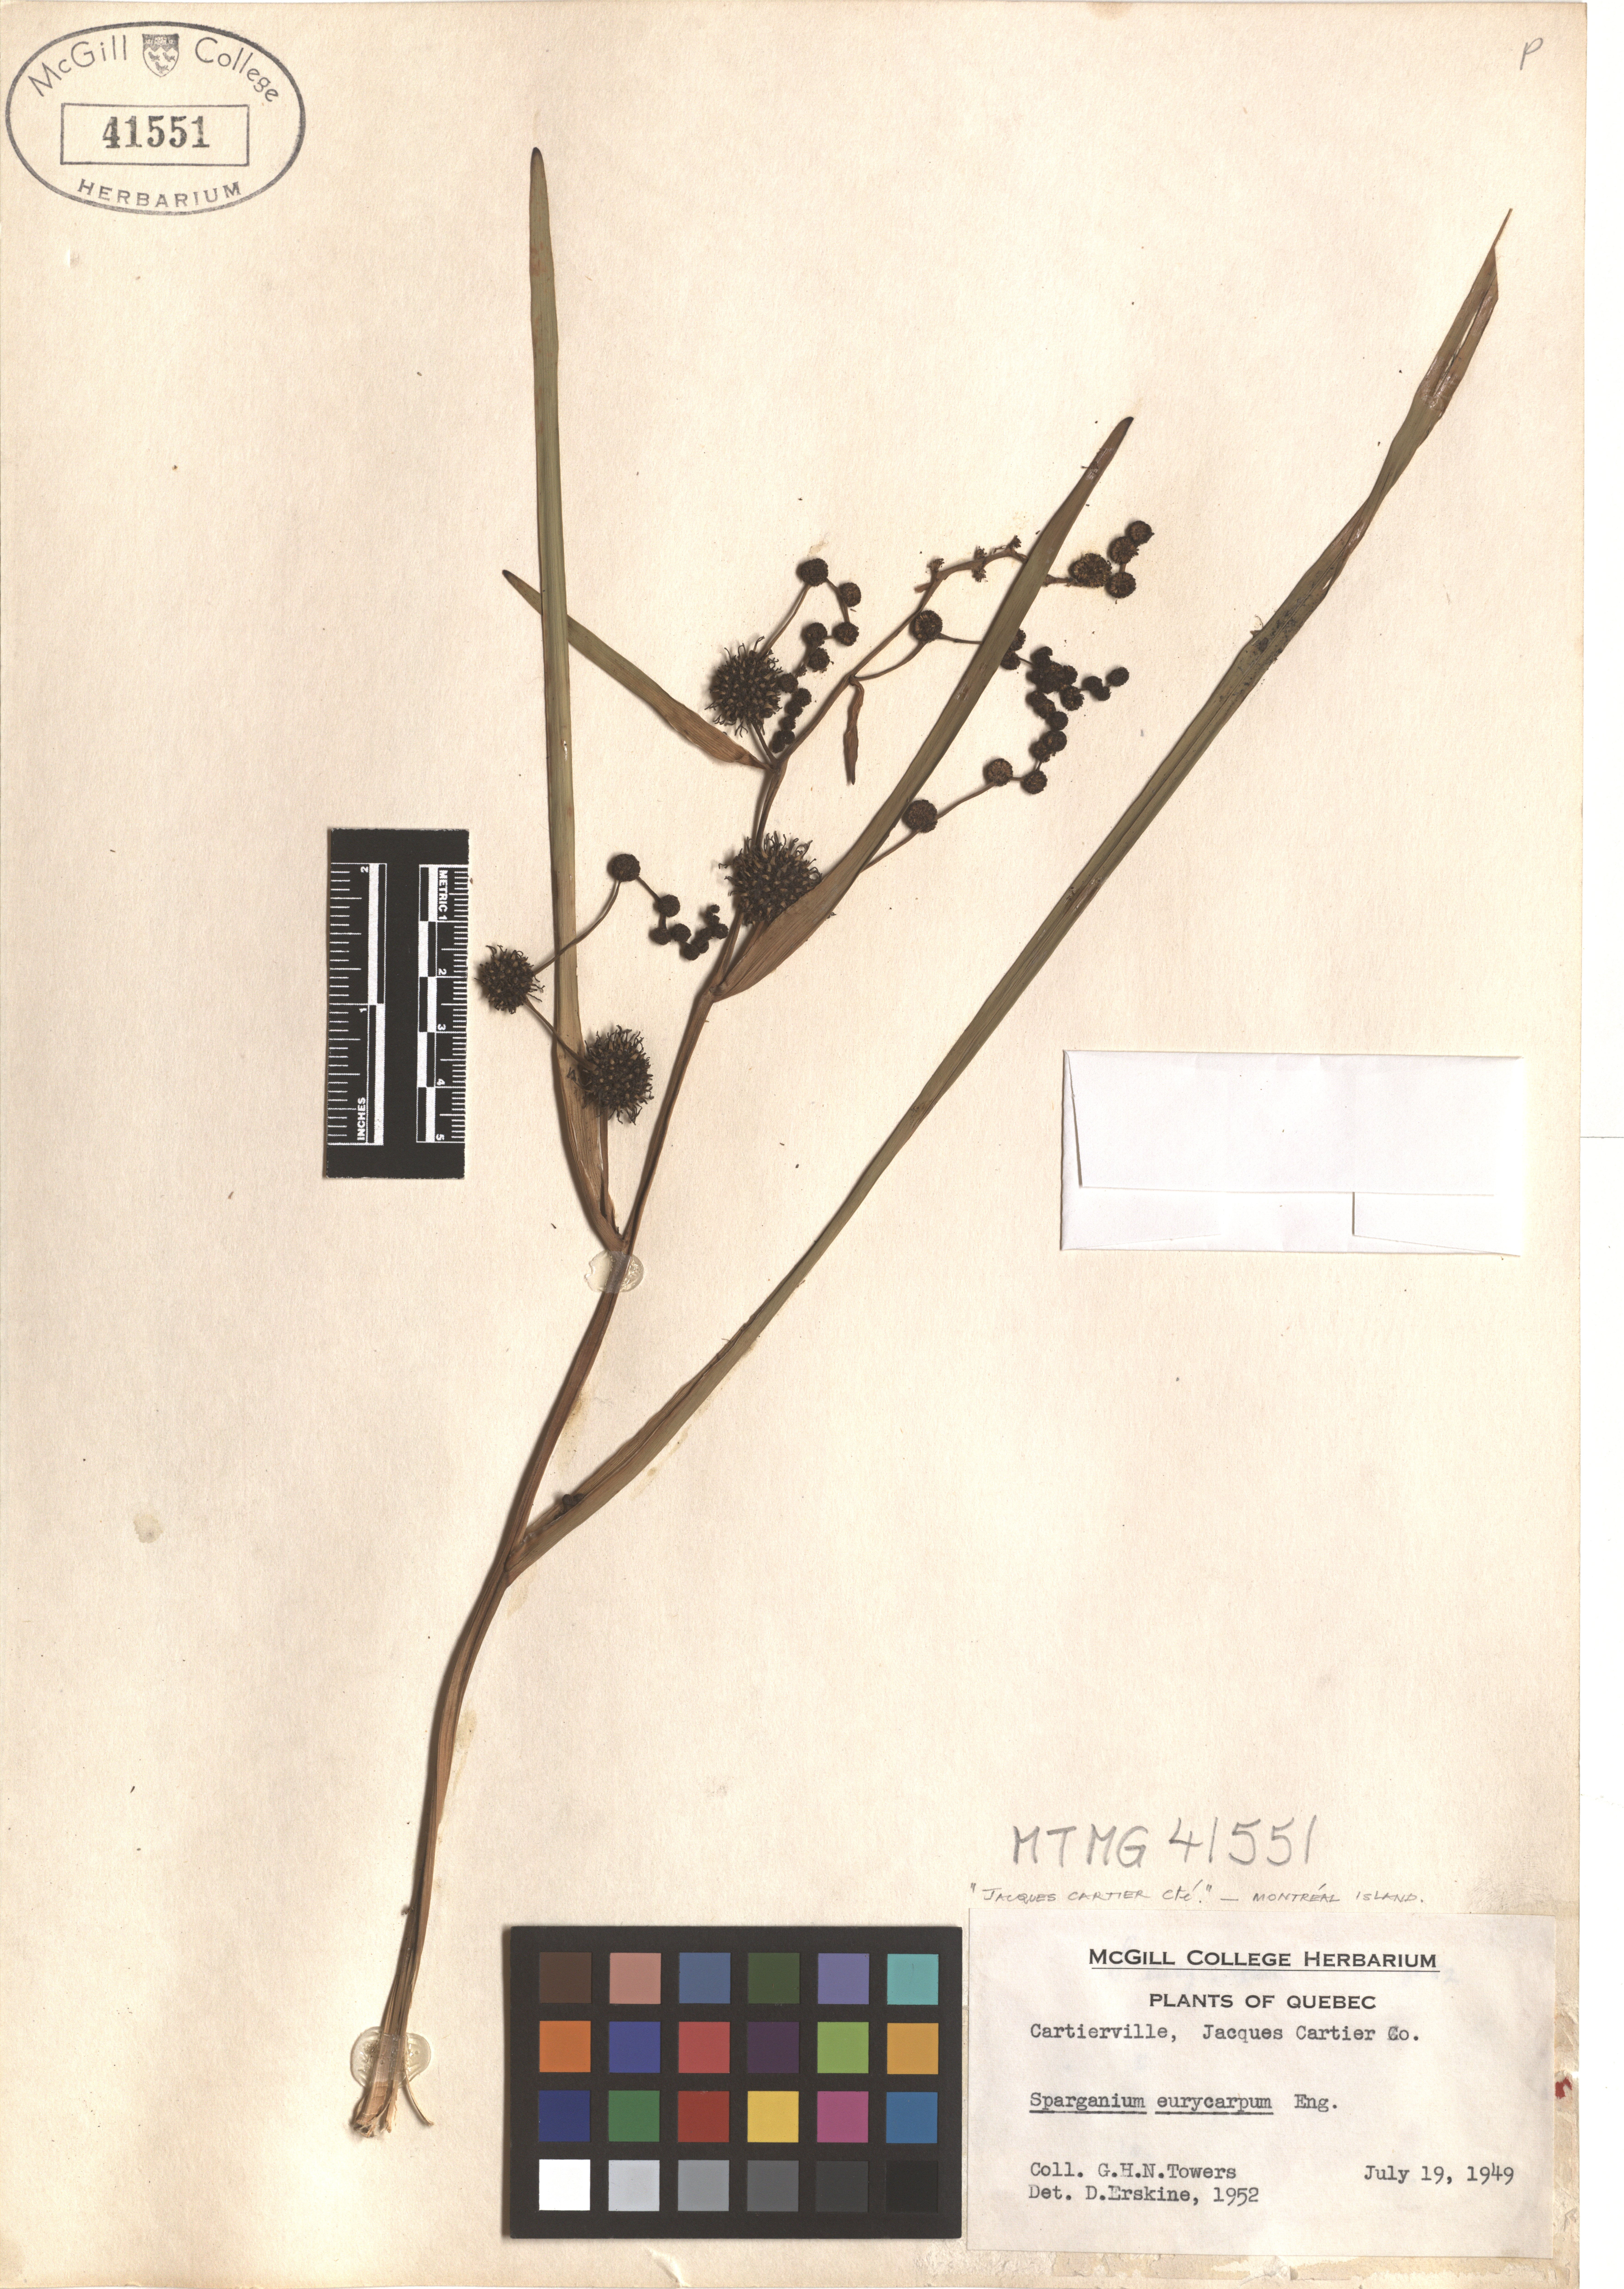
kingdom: Plantae
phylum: Tracheophyta
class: Liliopsida
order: Poales
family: Typhaceae
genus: Sparganium
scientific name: Sparganium eurycarpum
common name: Broad-fruited burreed
